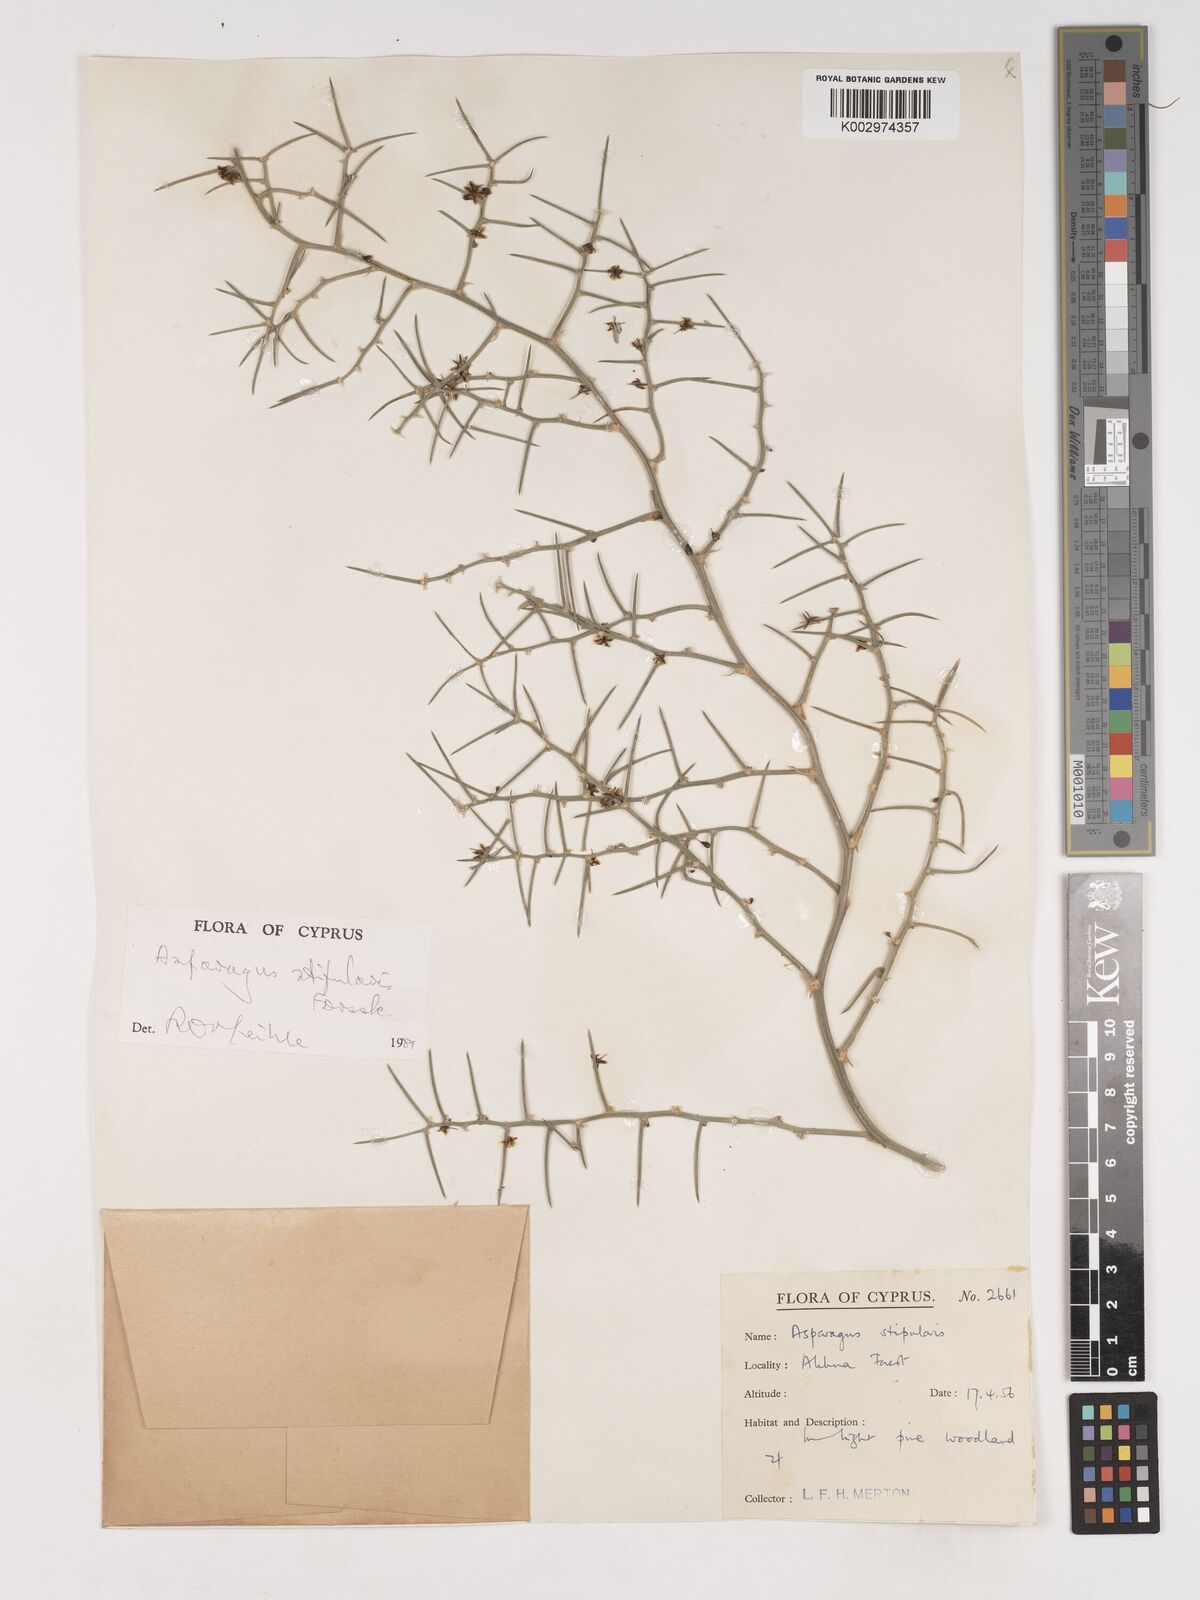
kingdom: Plantae
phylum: Tracheophyta
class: Liliopsida
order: Asparagales
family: Asparagaceae
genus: Asparagus
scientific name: Asparagus aphyllus
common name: Mediterranean asparagus
